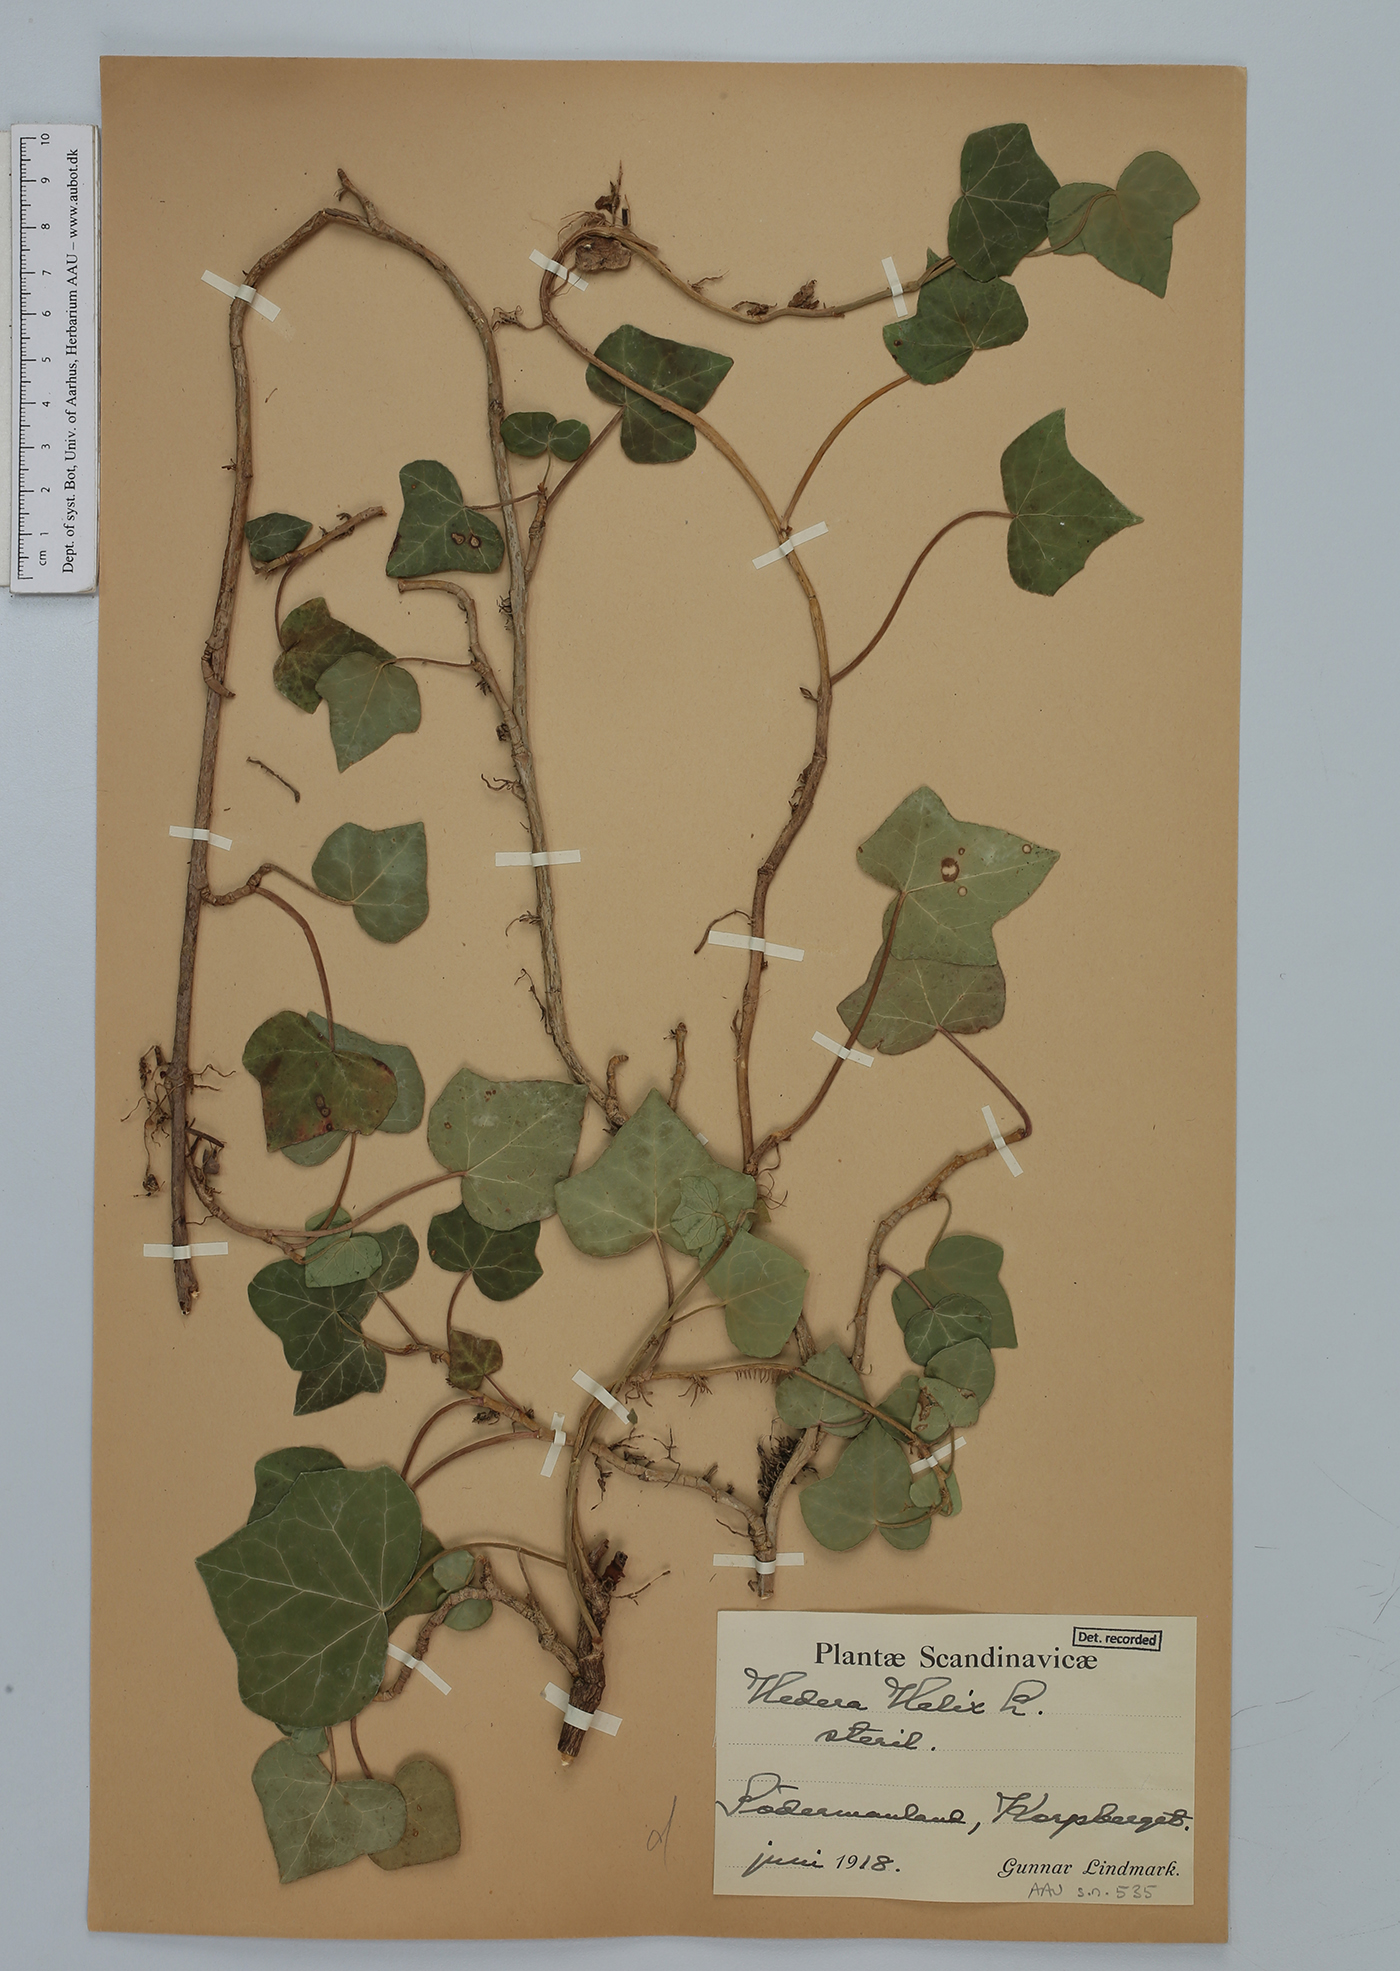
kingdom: Plantae
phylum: Tracheophyta
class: Magnoliopsida
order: Apiales
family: Araliaceae
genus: Hedera
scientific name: Hedera helix
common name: Ivy
